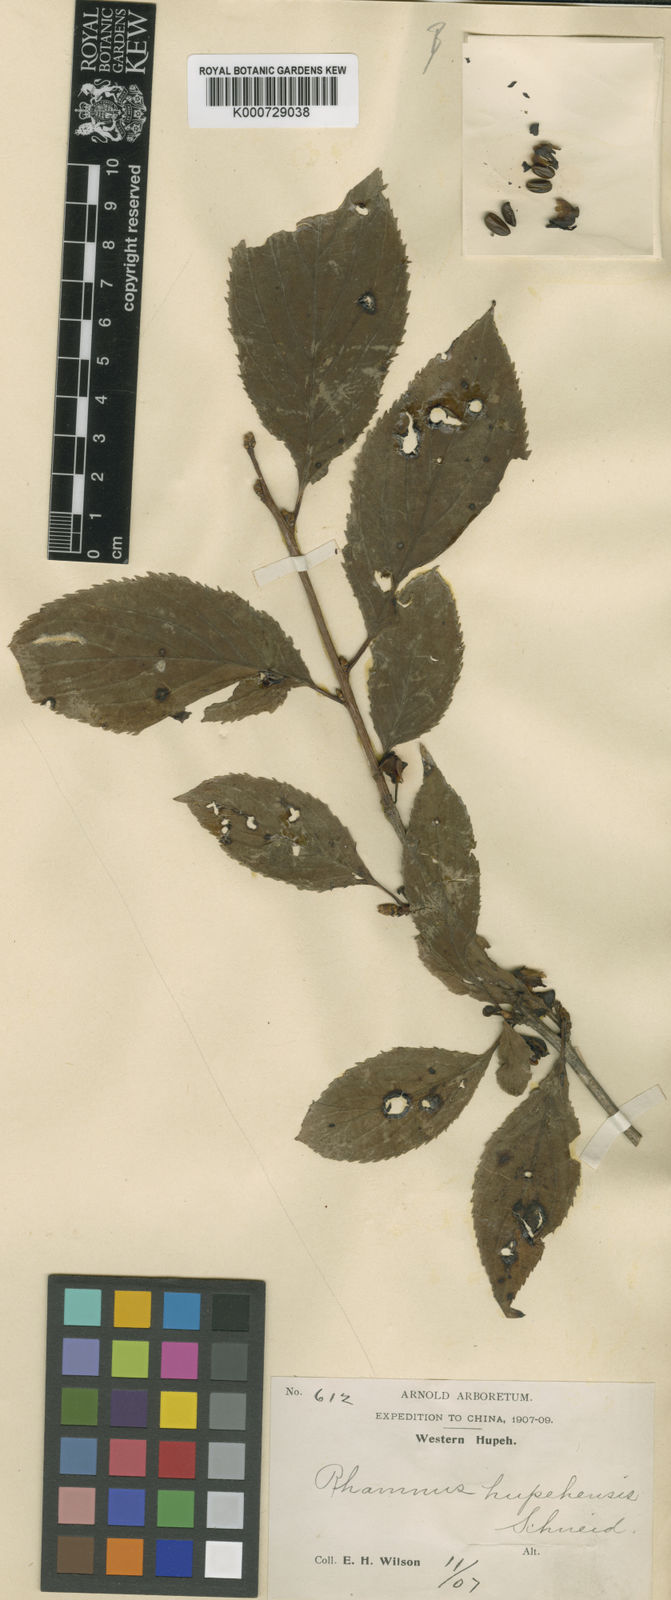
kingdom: Plantae
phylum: Tracheophyta
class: Magnoliopsida
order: Rosales
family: Rhamnaceae
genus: Rhamnus
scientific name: Rhamnus hupehensis
